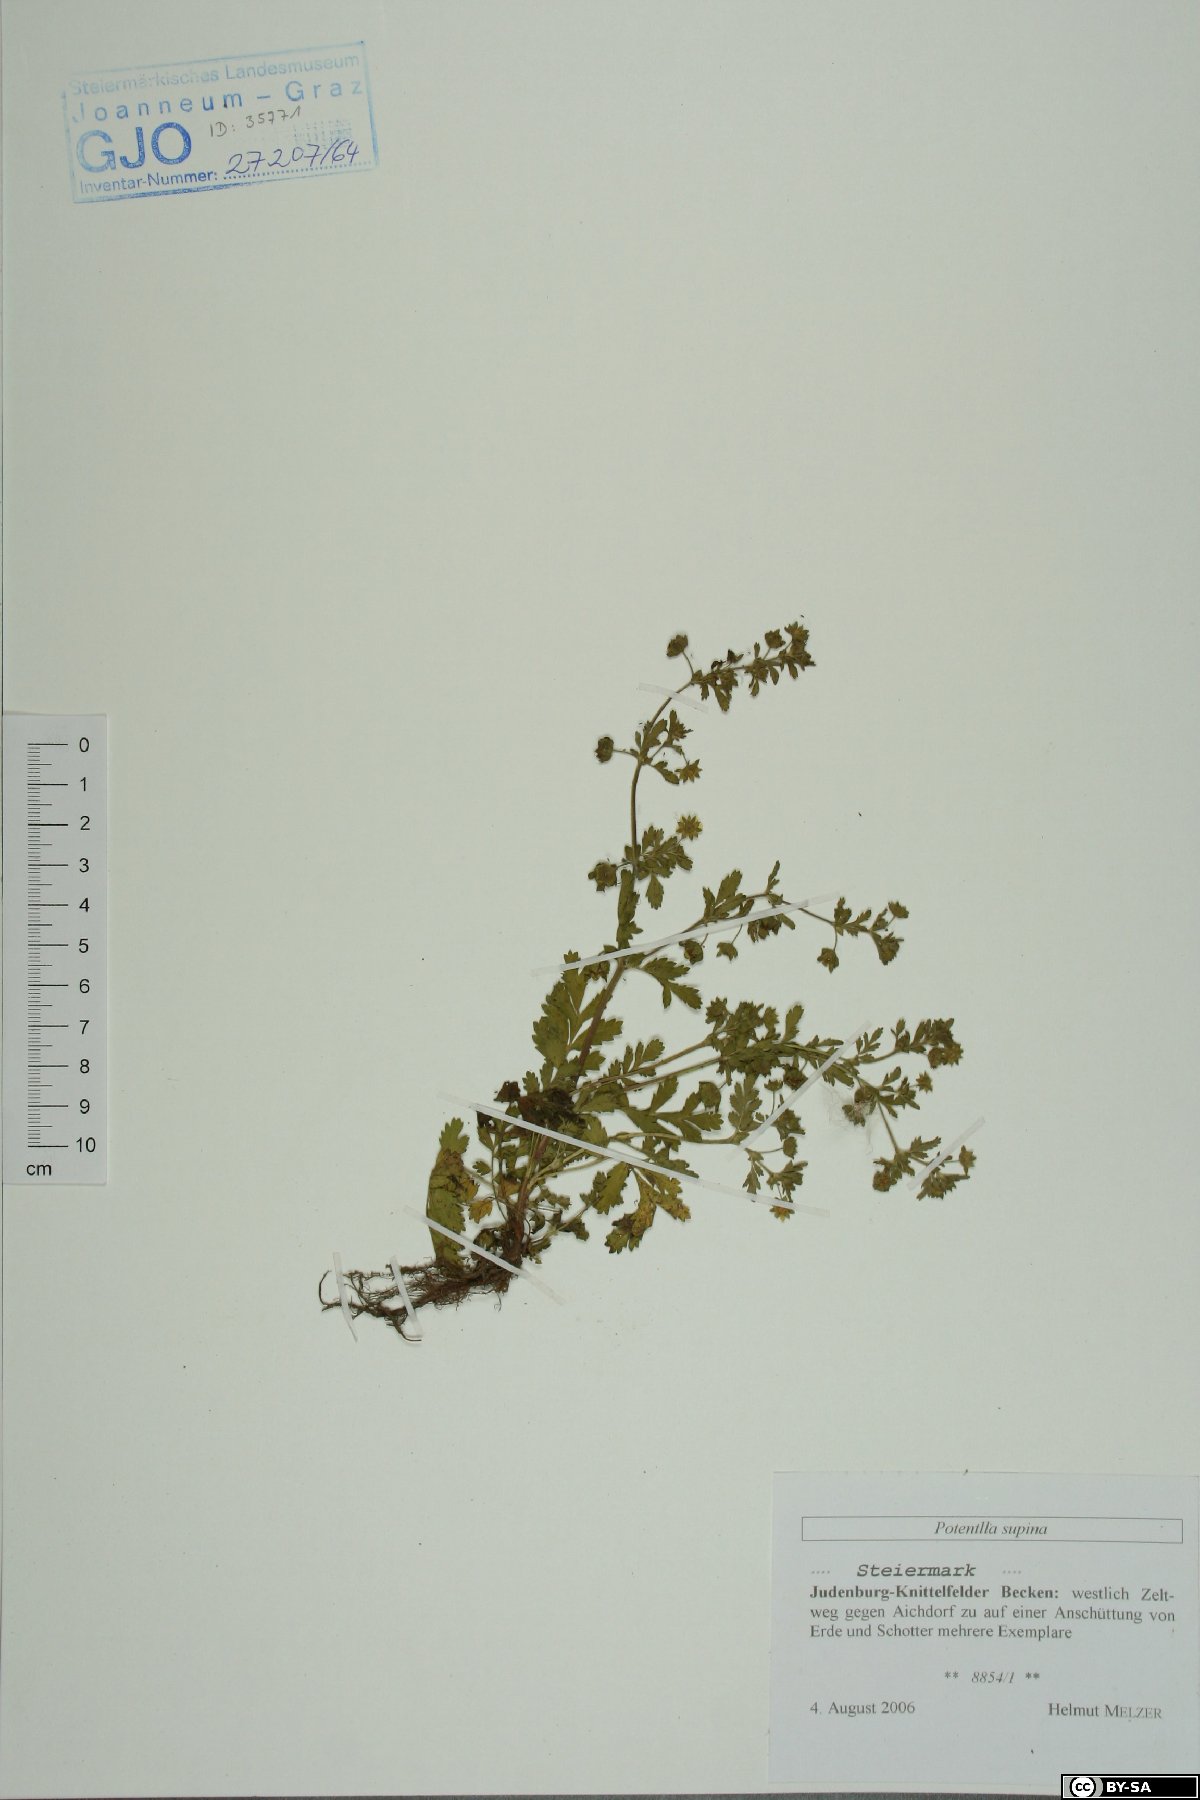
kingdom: Plantae
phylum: Tracheophyta
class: Magnoliopsida
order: Rosales
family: Rosaceae
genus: Potentilla
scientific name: Potentilla supina
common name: Prostrate cinquefoil
